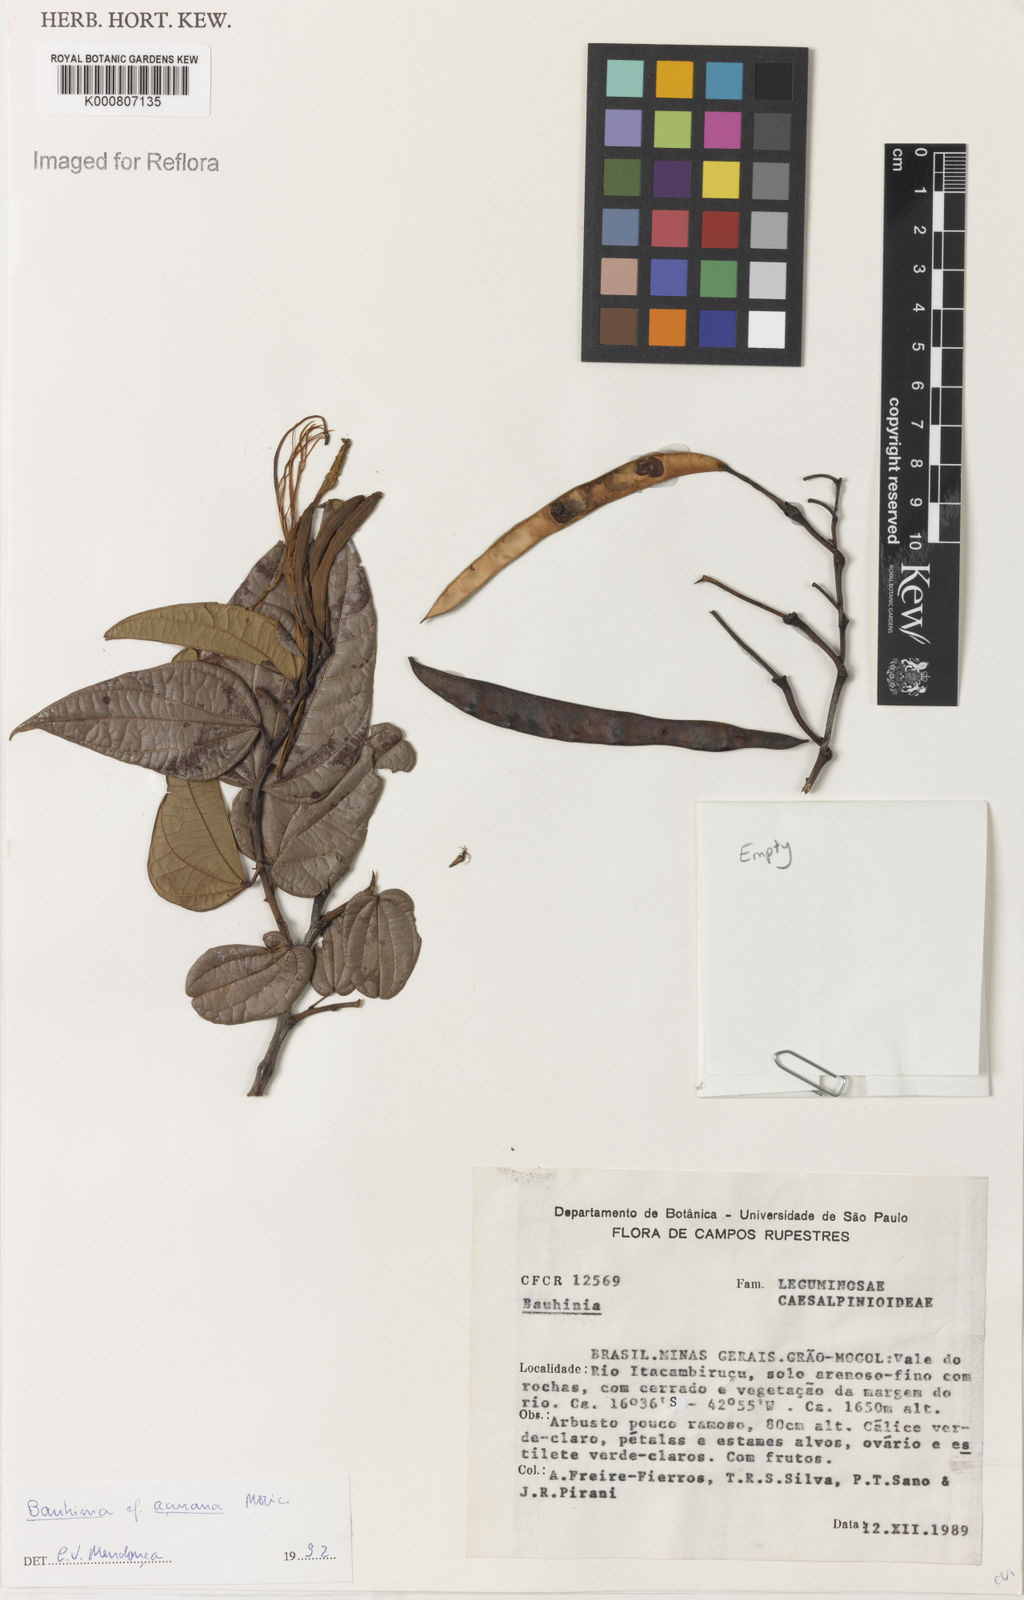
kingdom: Plantae
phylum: Tracheophyta
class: Magnoliopsida
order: Fabales
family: Fabaceae
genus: Bauhinia
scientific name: Bauhinia acuruana
